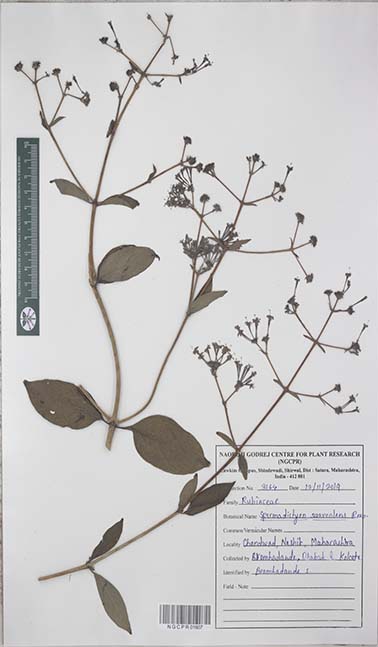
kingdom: Plantae
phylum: Tracheophyta
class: Magnoliopsida
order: Gentianales
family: Rubiaceae
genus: Spermadictyon
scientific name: Spermadictyon suaveolens
